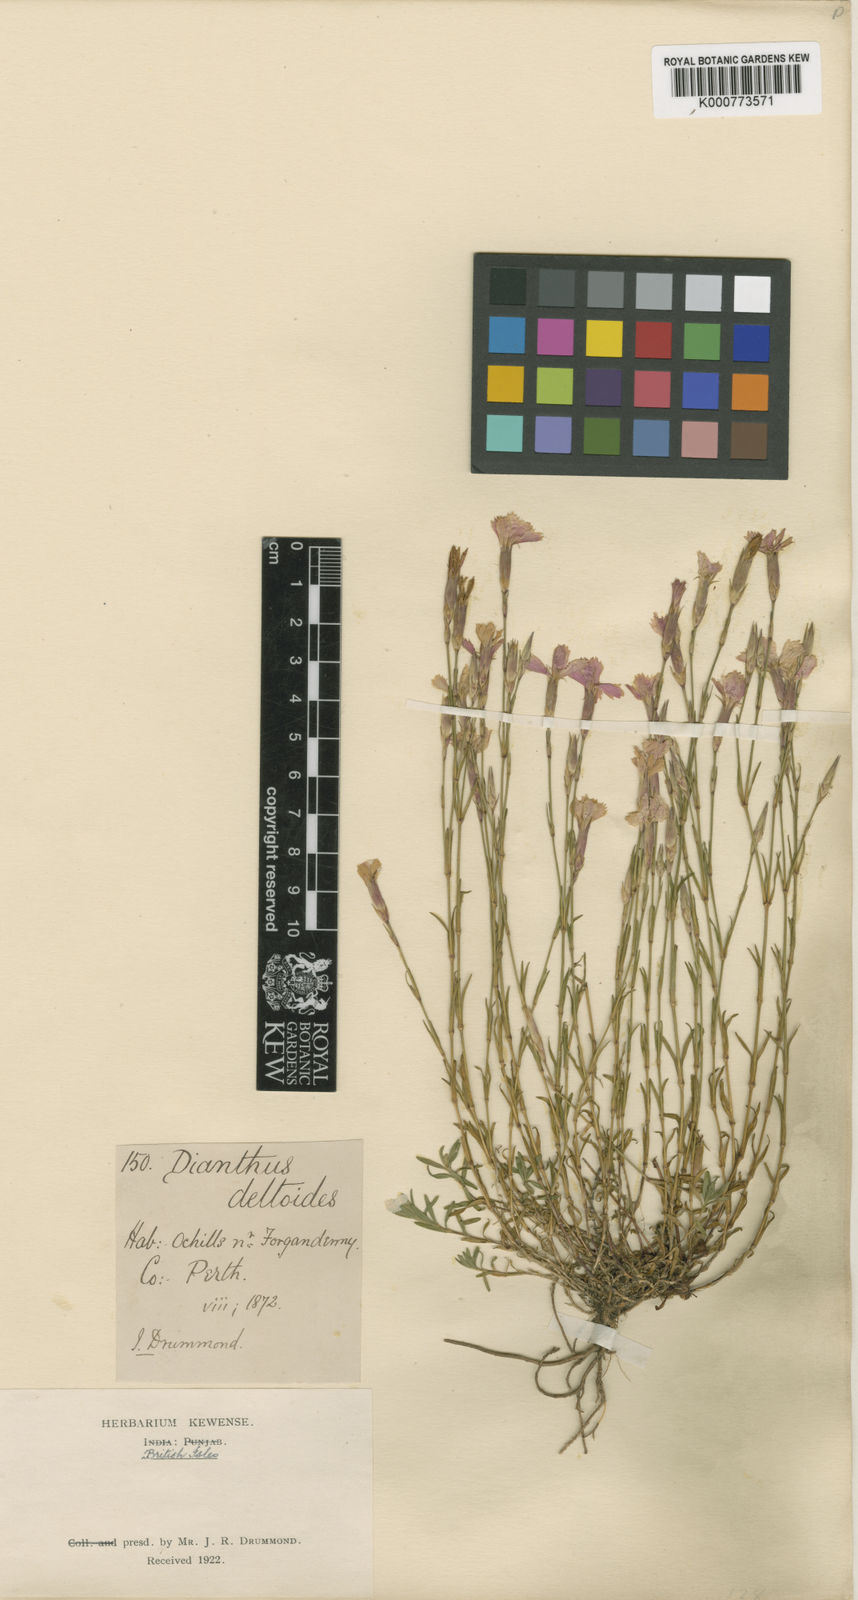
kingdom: Plantae
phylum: Tracheophyta
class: Magnoliopsida
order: Caryophyllales
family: Caryophyllaceae
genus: Dianthus
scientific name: Dianthus deltoides
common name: Maiden pink
